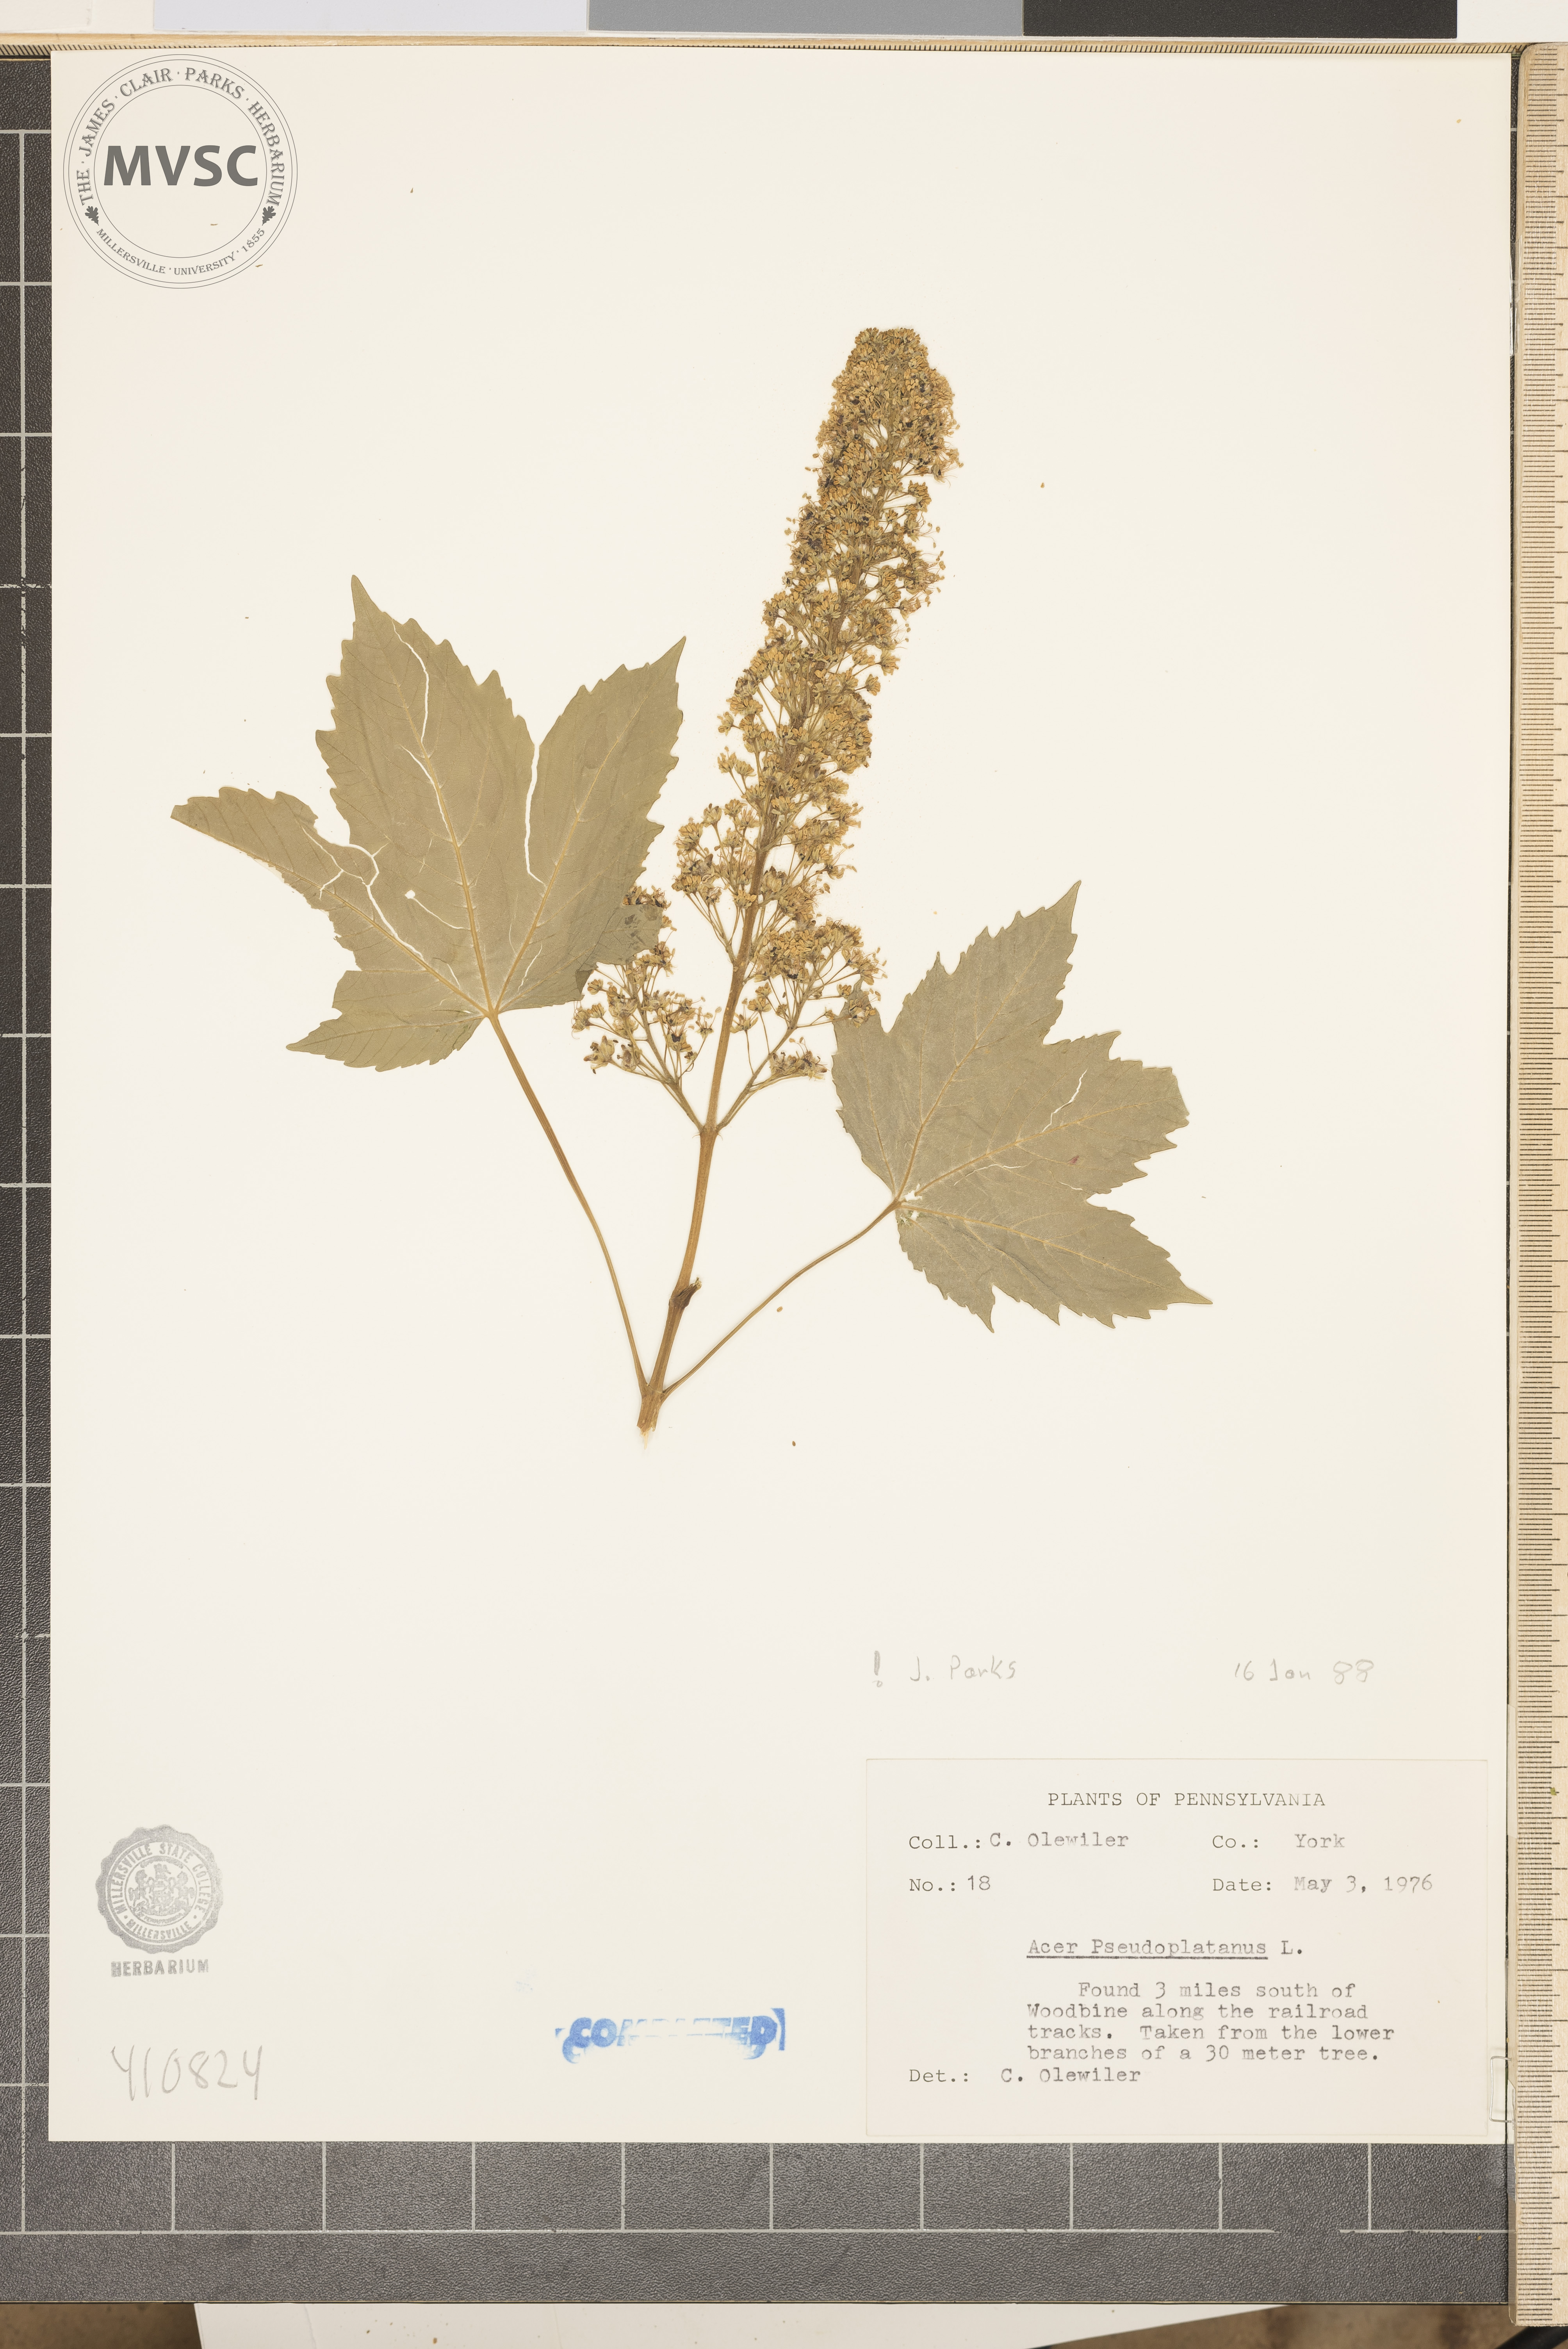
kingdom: Plantae
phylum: Tracheophyta
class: Magnoliopsida
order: Sapindales
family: Sapindaceae
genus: Acer
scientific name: Acer pseudoplatanus
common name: Sycamore
